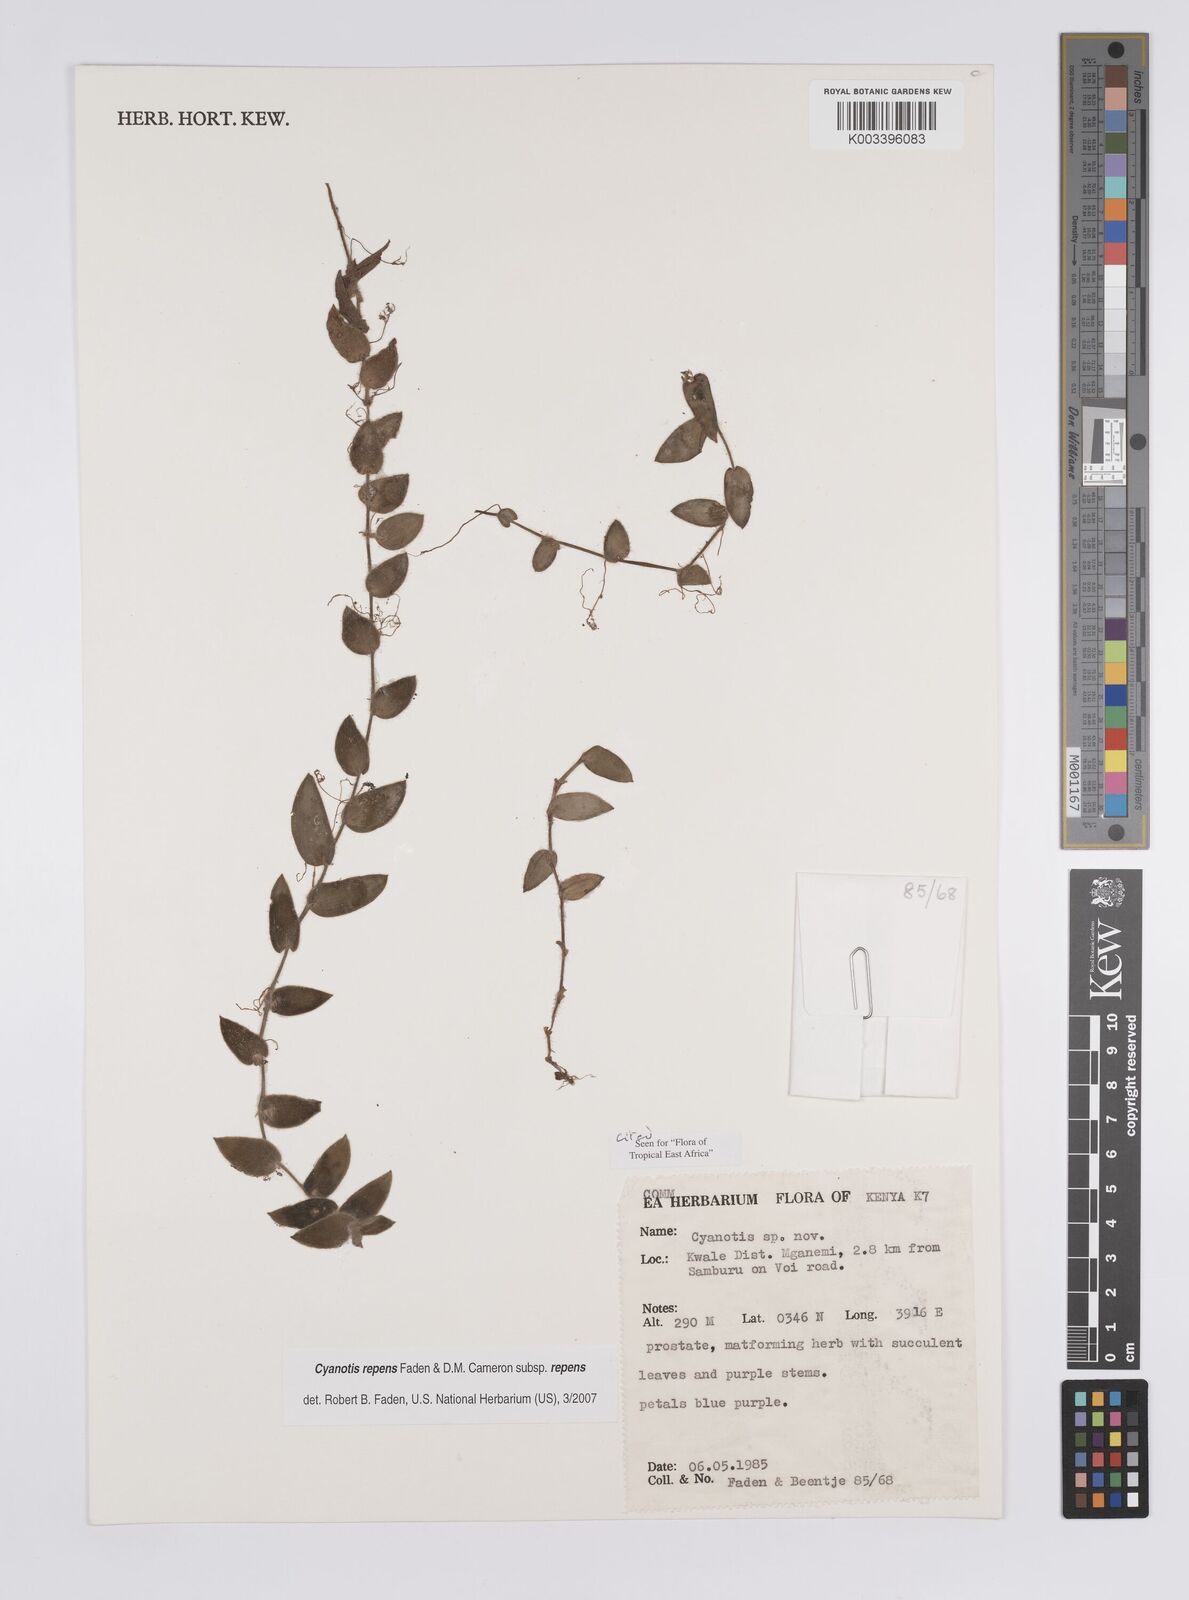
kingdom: Plantae
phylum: Tracheophyta
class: Liliopsida
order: Commelinales
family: Commelinaceae
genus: Cyanotis
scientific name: Cyanotis repens
